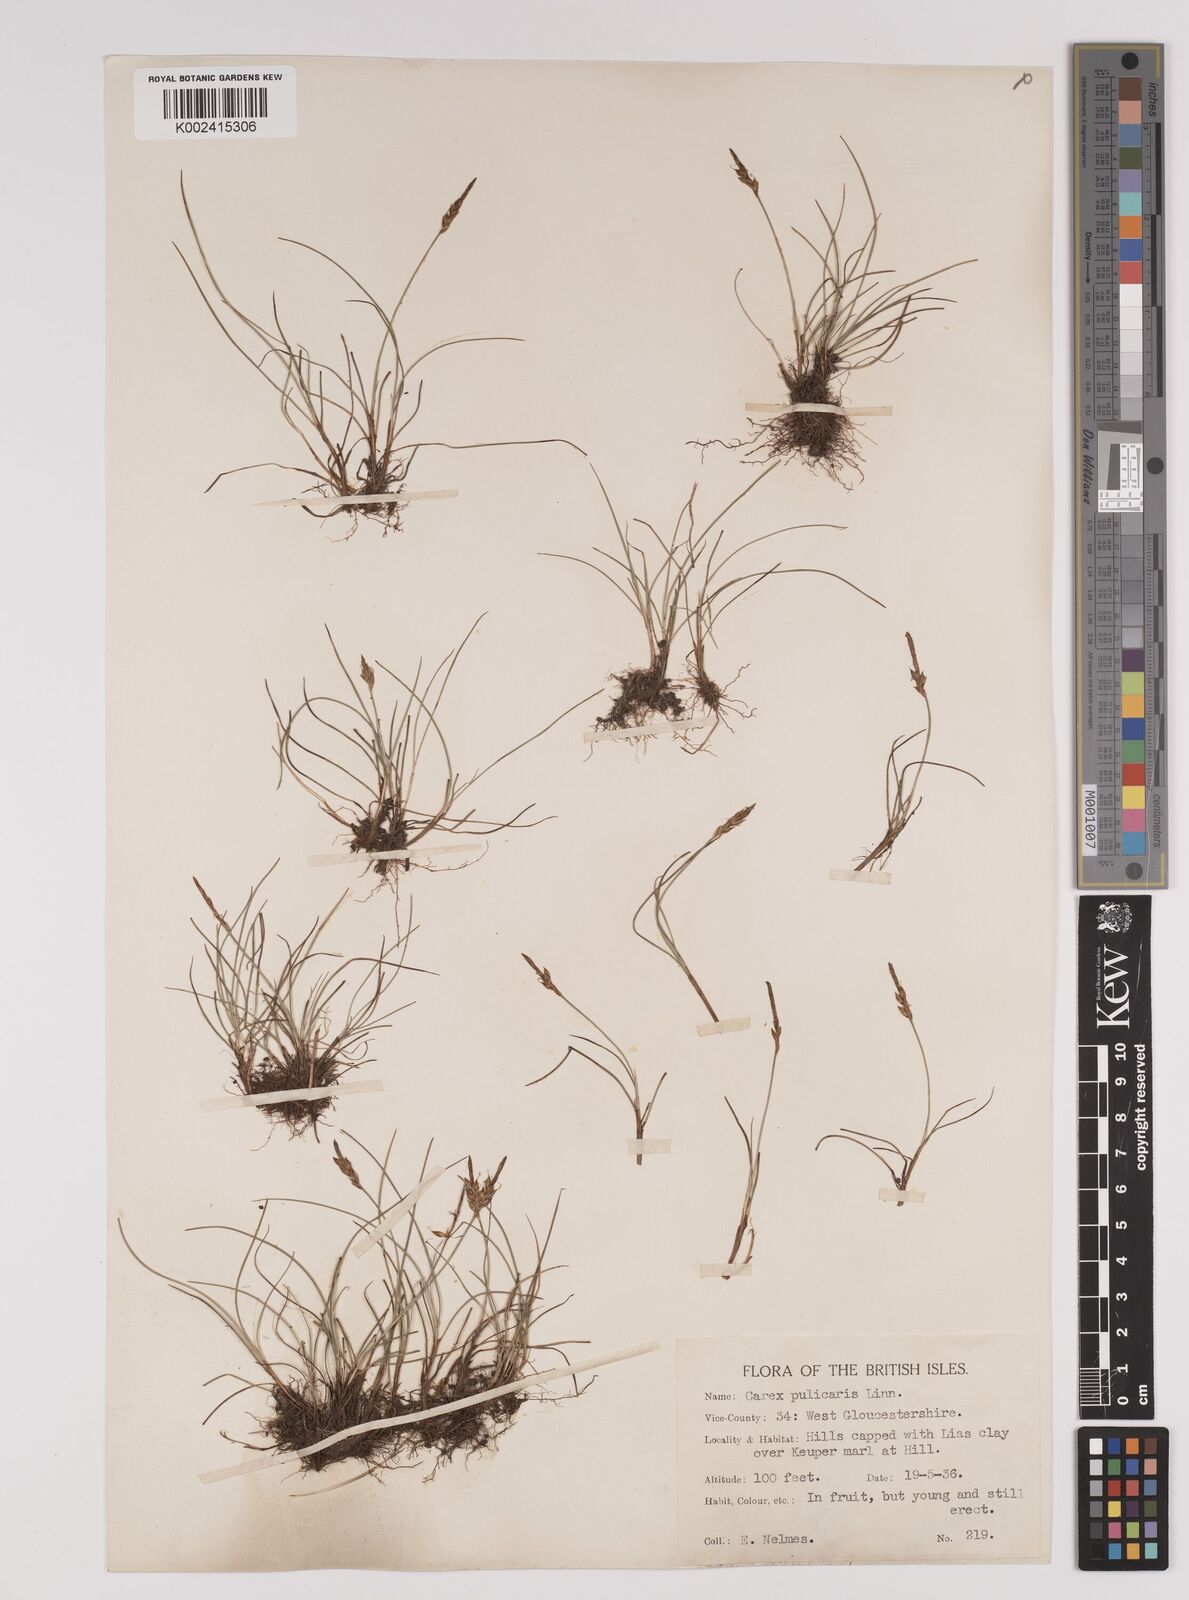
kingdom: Plantae
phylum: Tracheophyta
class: Liliopsida
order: Poales
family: Cyperaceae
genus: Carex
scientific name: Carex pulicaris
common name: Flea sedge
